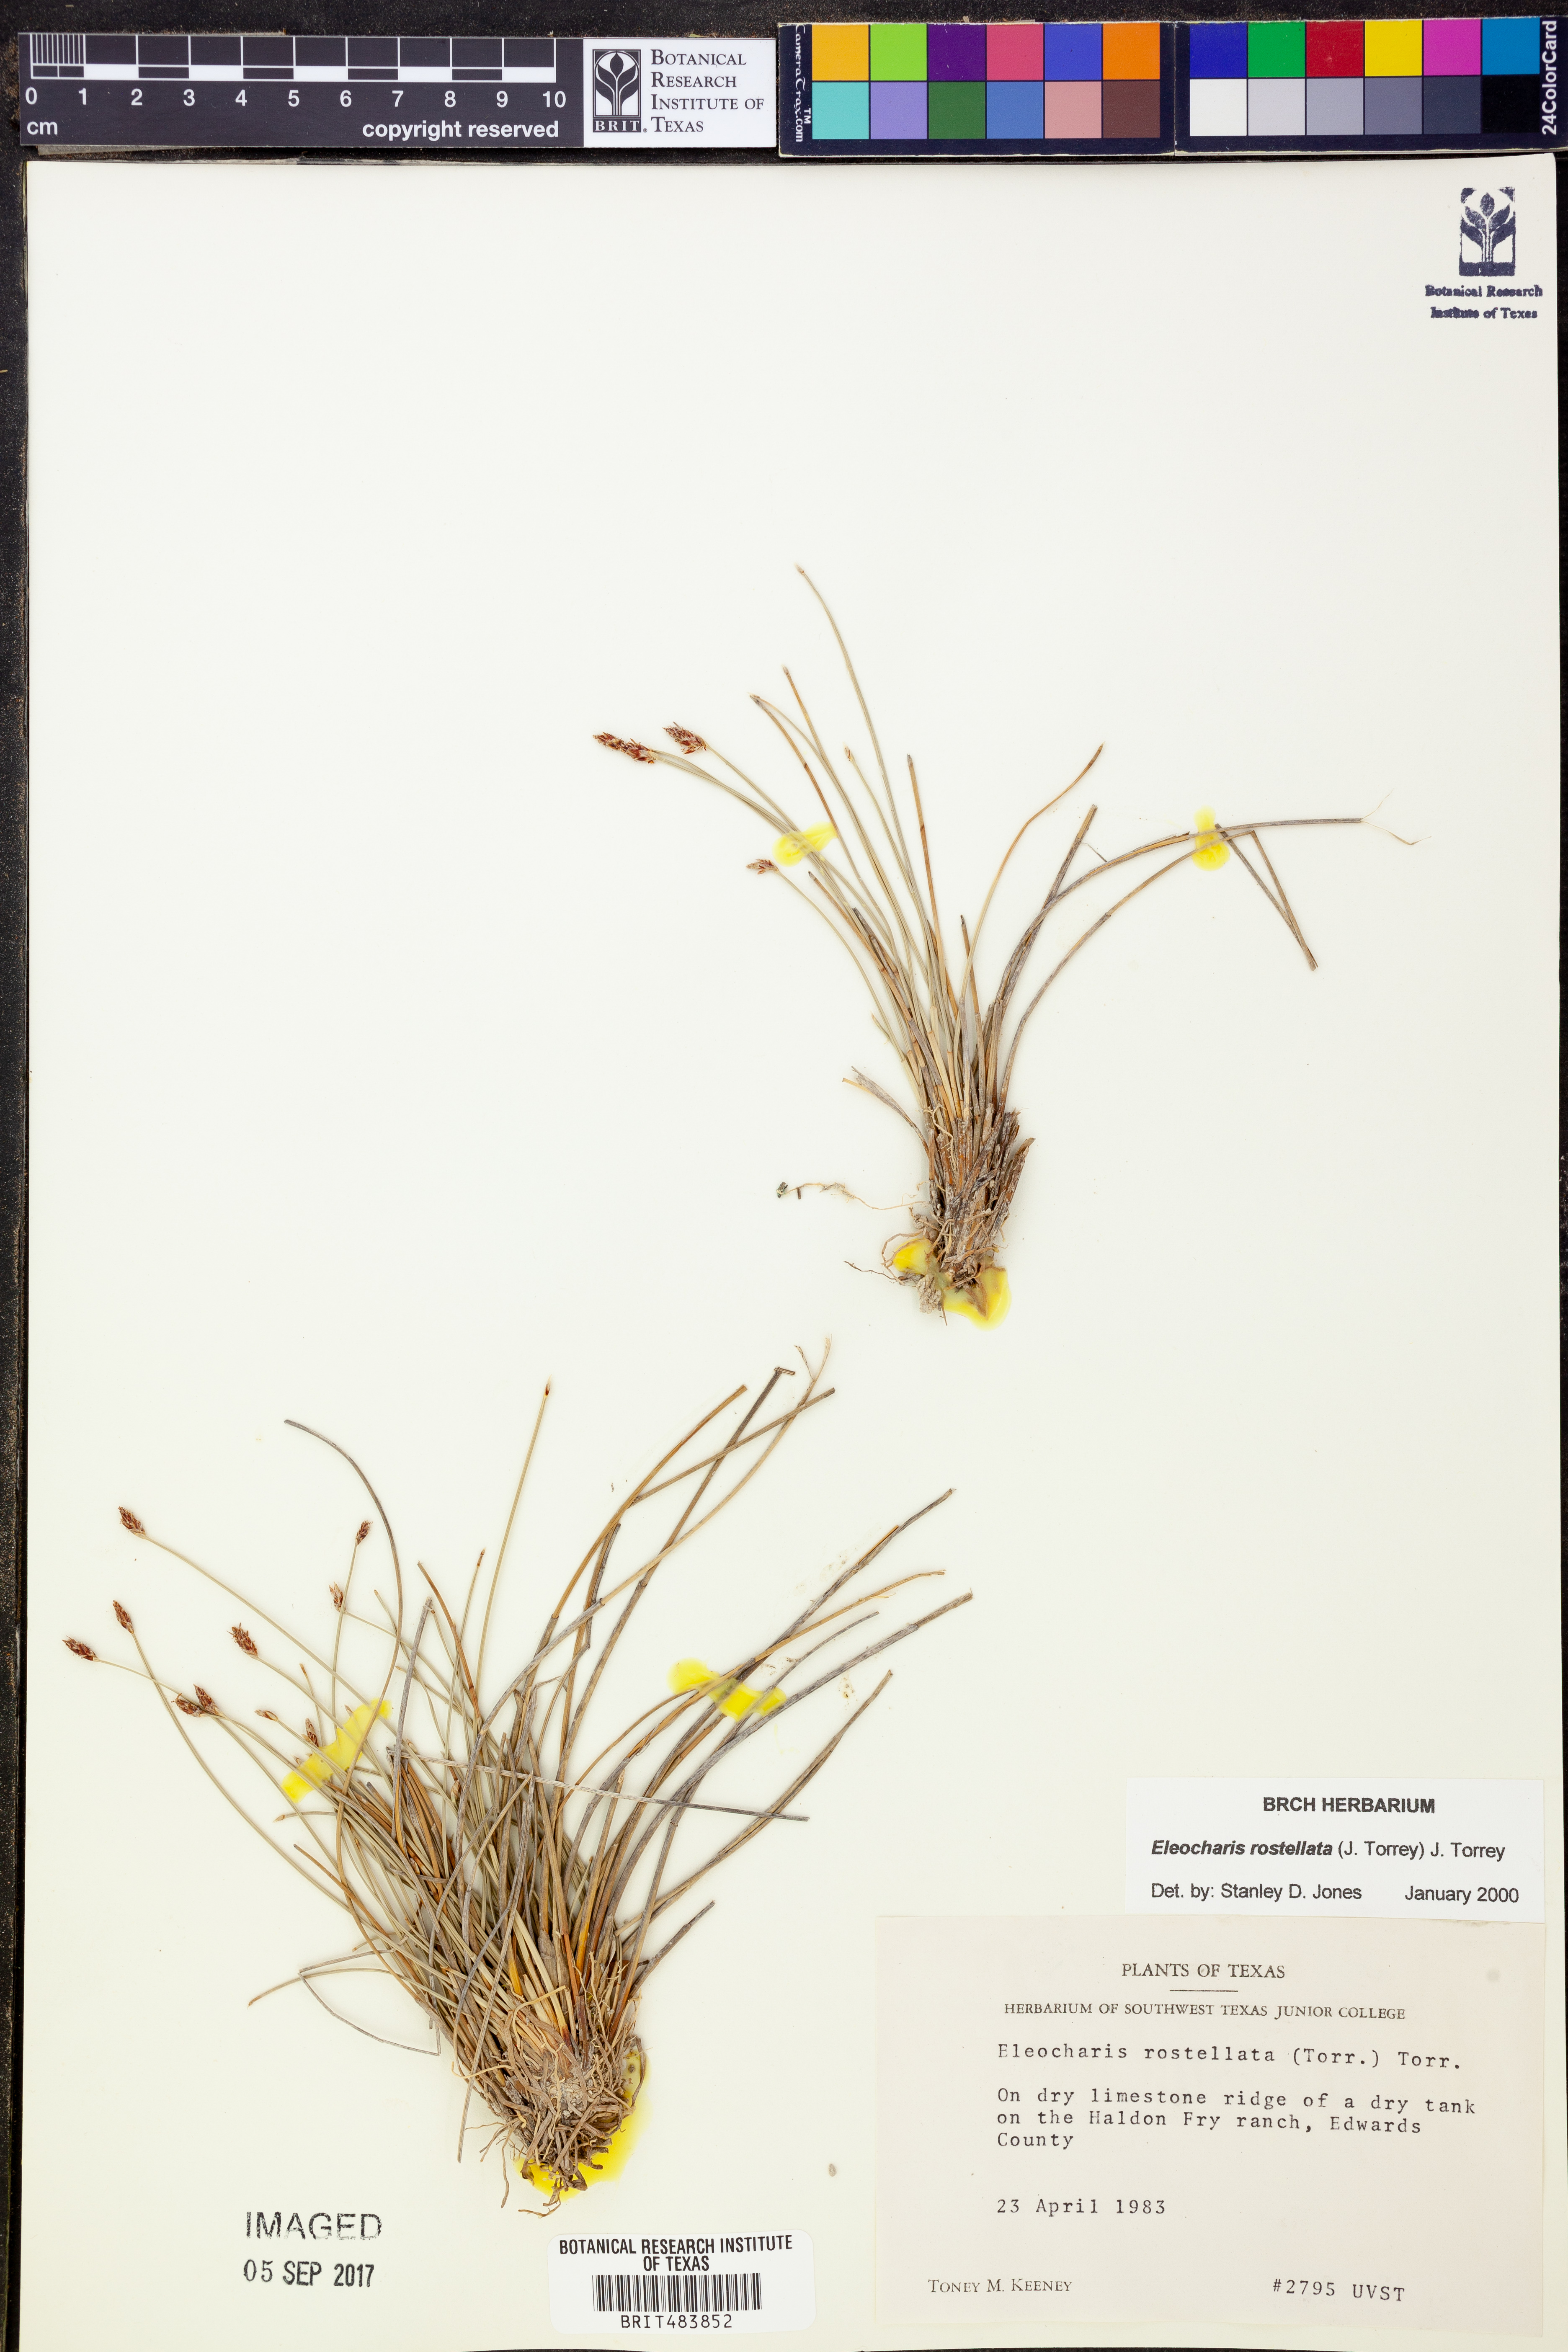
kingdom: Plantae
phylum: Tracheophyta
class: Liliopsida
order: Poales
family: Cyperaceae
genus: Eleocharis
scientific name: Eleocharis rostellata
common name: Walking sedge
